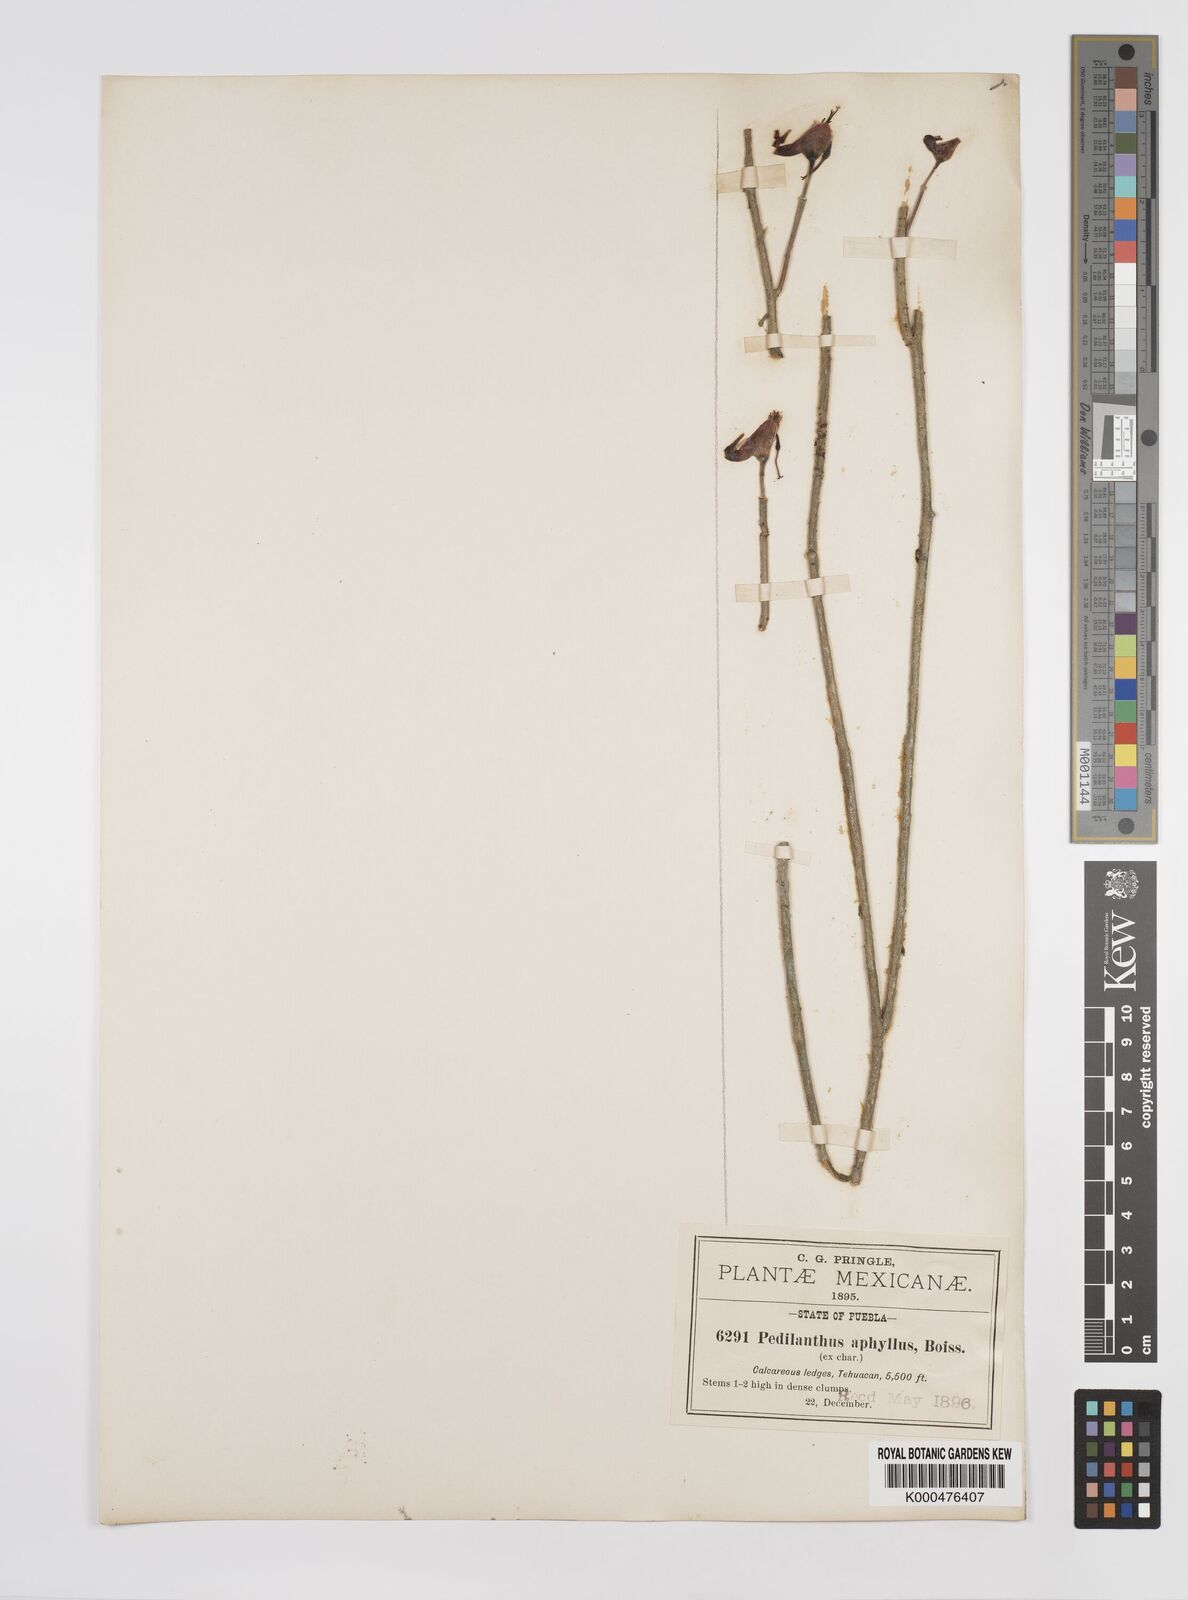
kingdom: Plantae
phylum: Tracheophyta
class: Magnoliopsida
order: Malpighiales
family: Euphorbiaceae
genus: Euphorbia
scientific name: Euphorbia cymbifera
